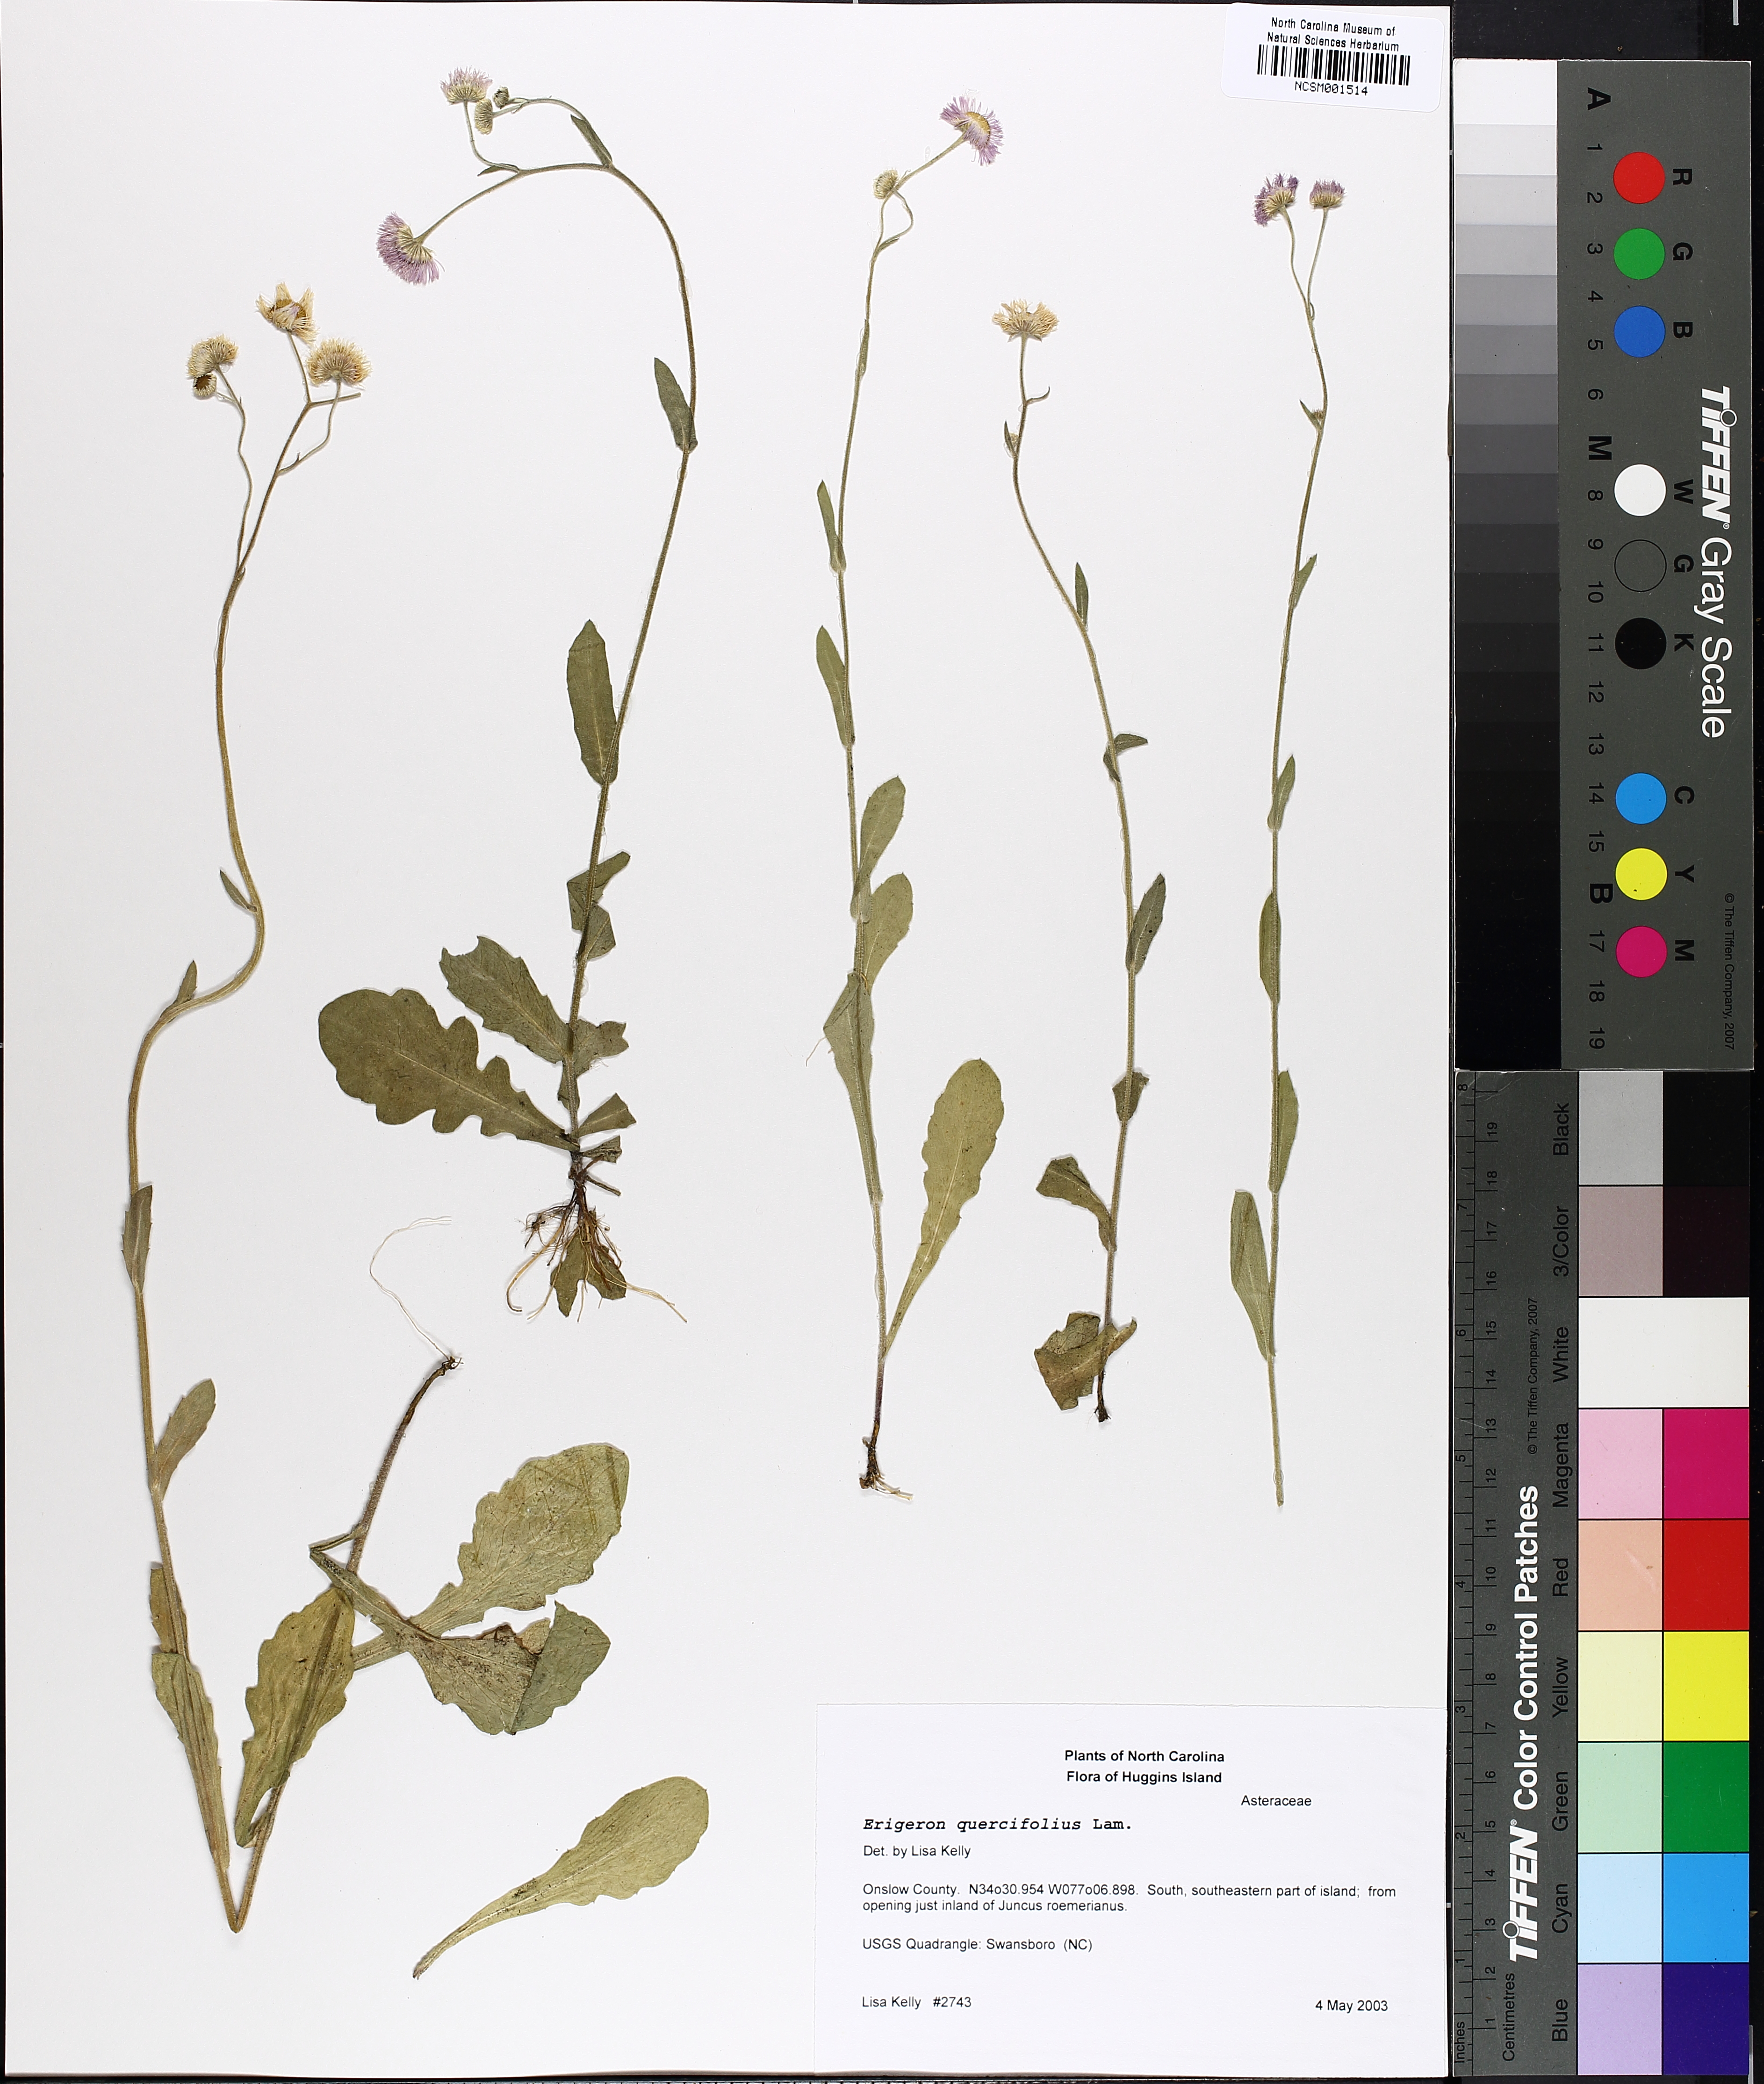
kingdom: Plantae
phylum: Tracheophyta
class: Magnoliopsida
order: Asterales
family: Asteraceae
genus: Erigeron
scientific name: Erigeron quercifolius
